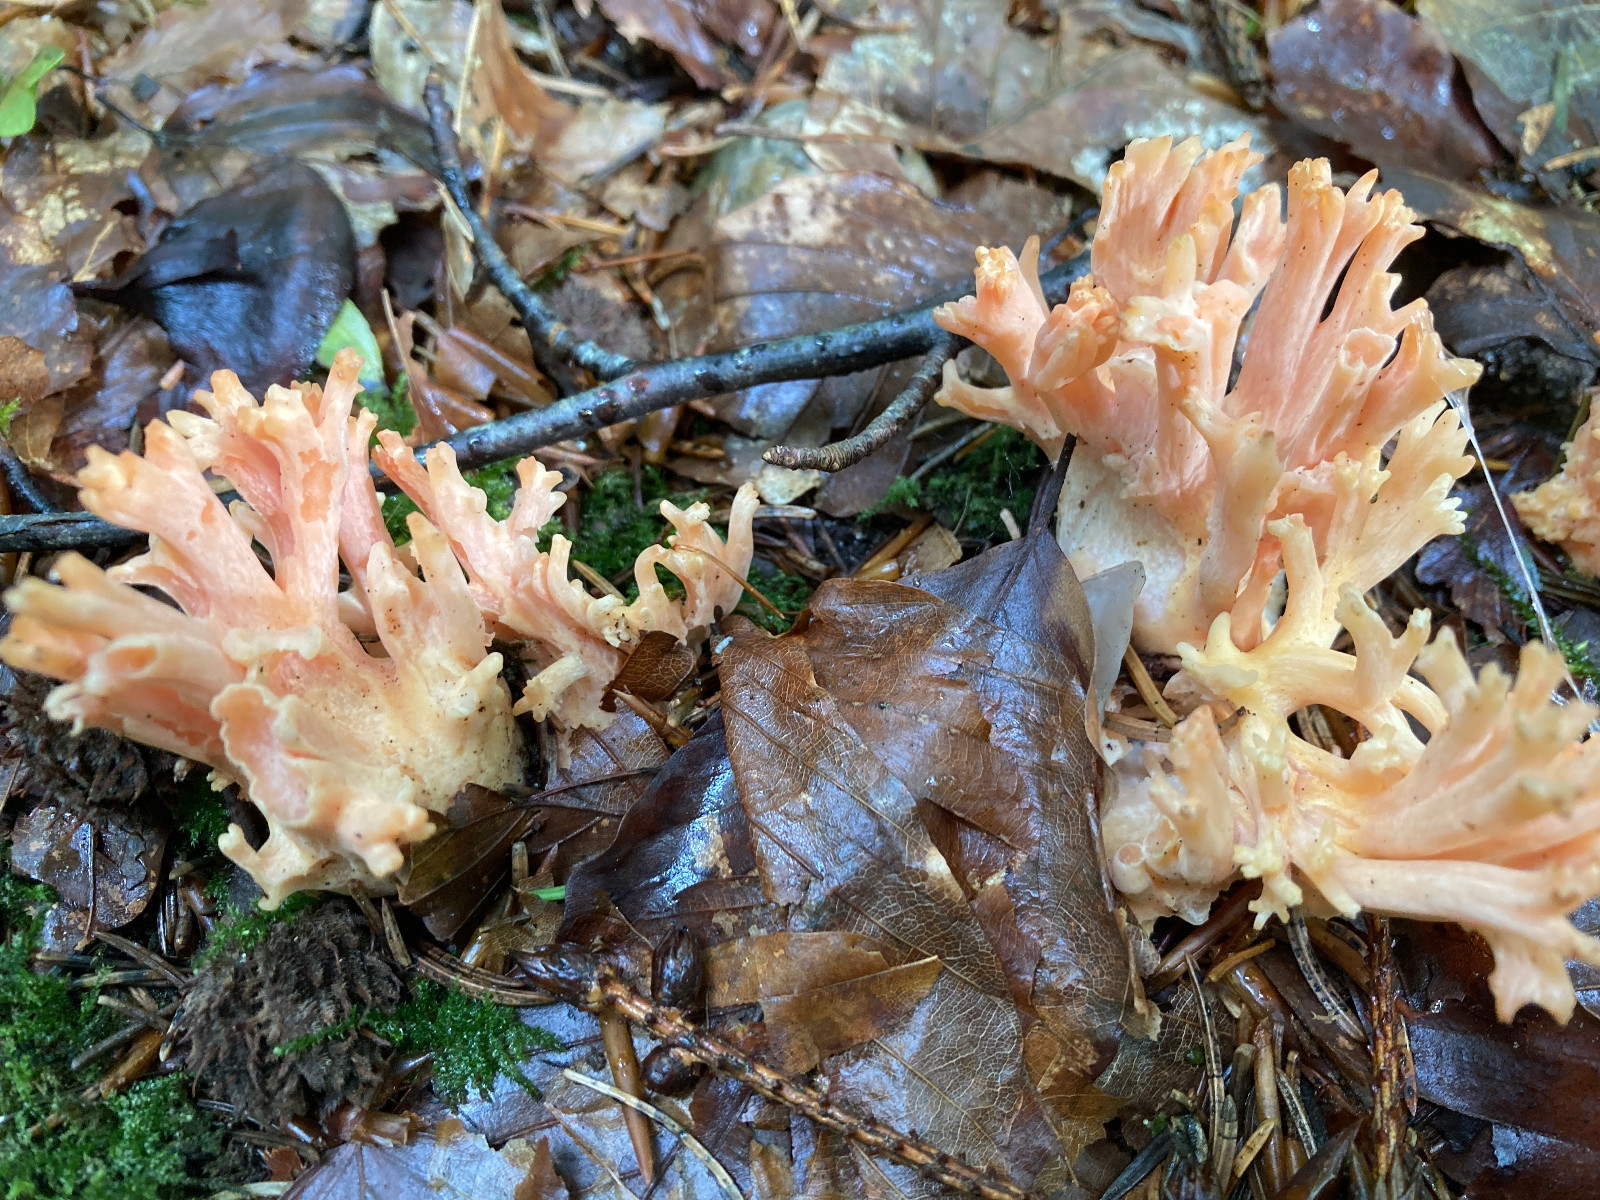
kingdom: Fungi
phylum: Basidiomycota
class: Agaricomycetes
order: Gomphales
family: Gomphaceae
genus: Ramaria
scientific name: Ramaria fagetorum
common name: abrikos-koralsvamp
